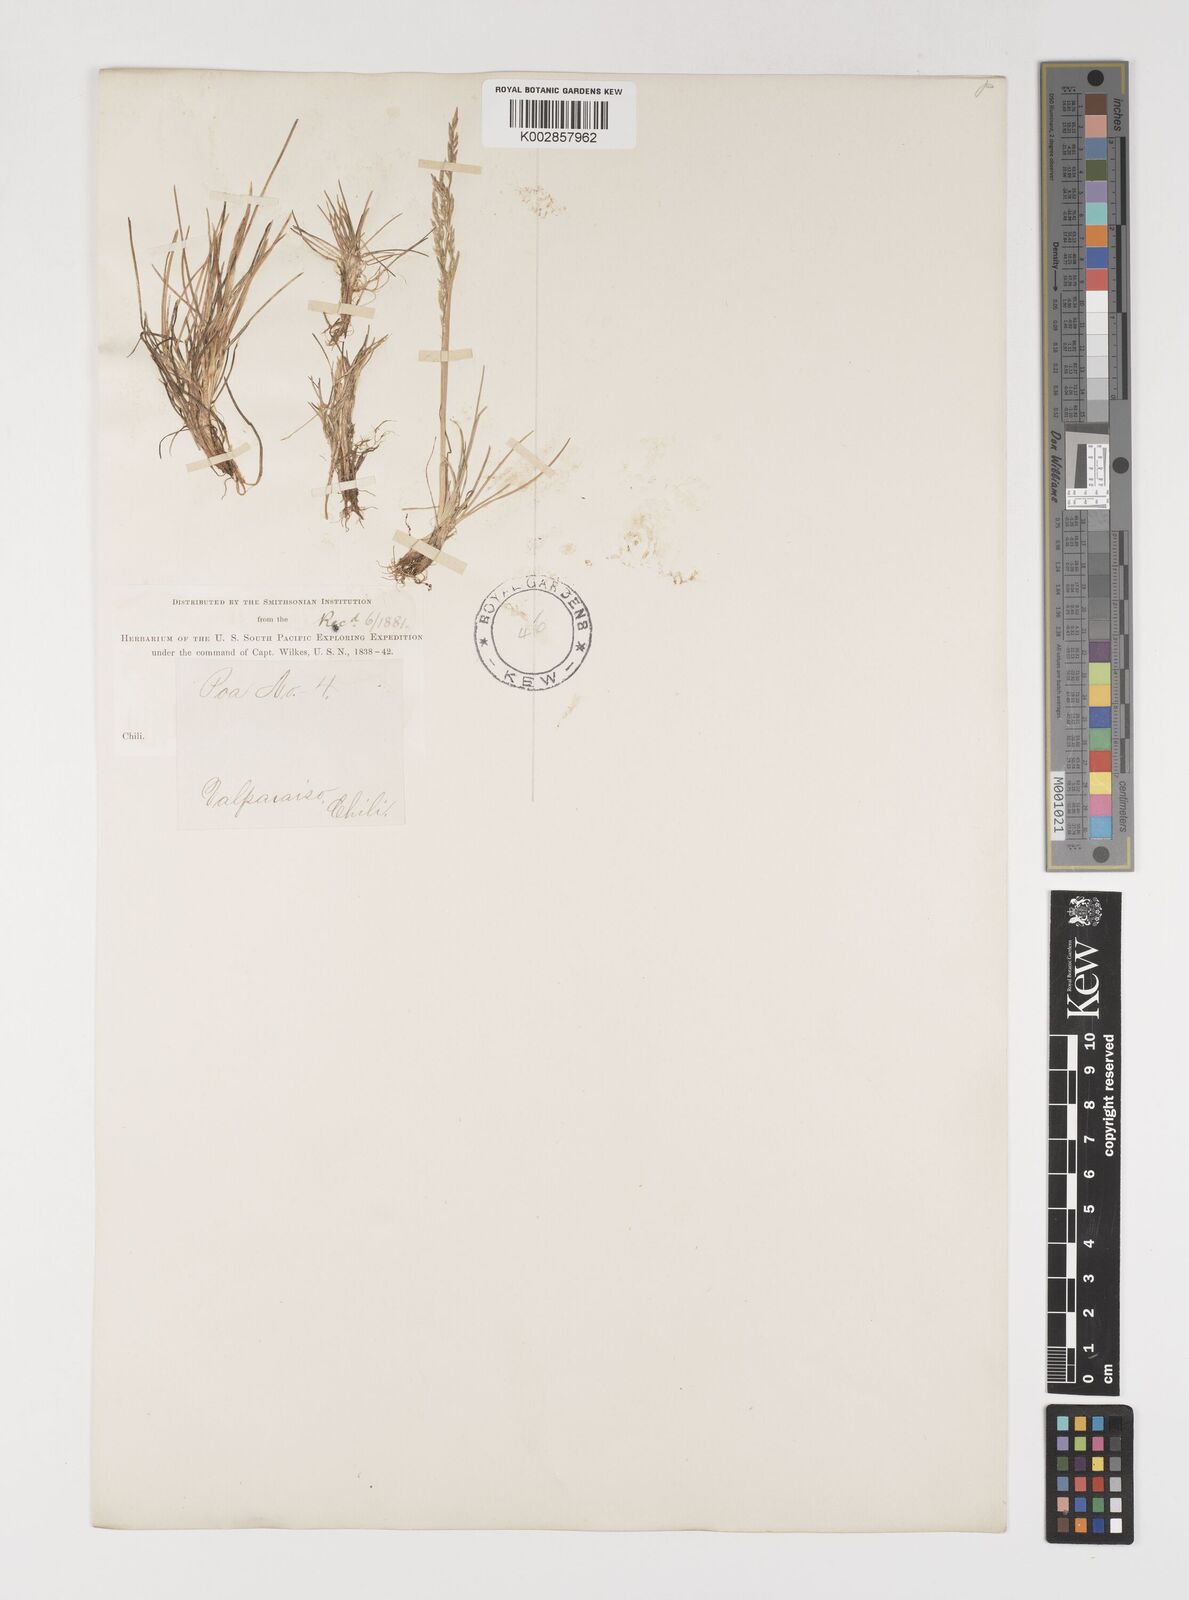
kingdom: Plantae
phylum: Tracheophyta
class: Liliopsida
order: Poales
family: Poaceae
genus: Puccinellia
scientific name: Puccinellia magellanica
